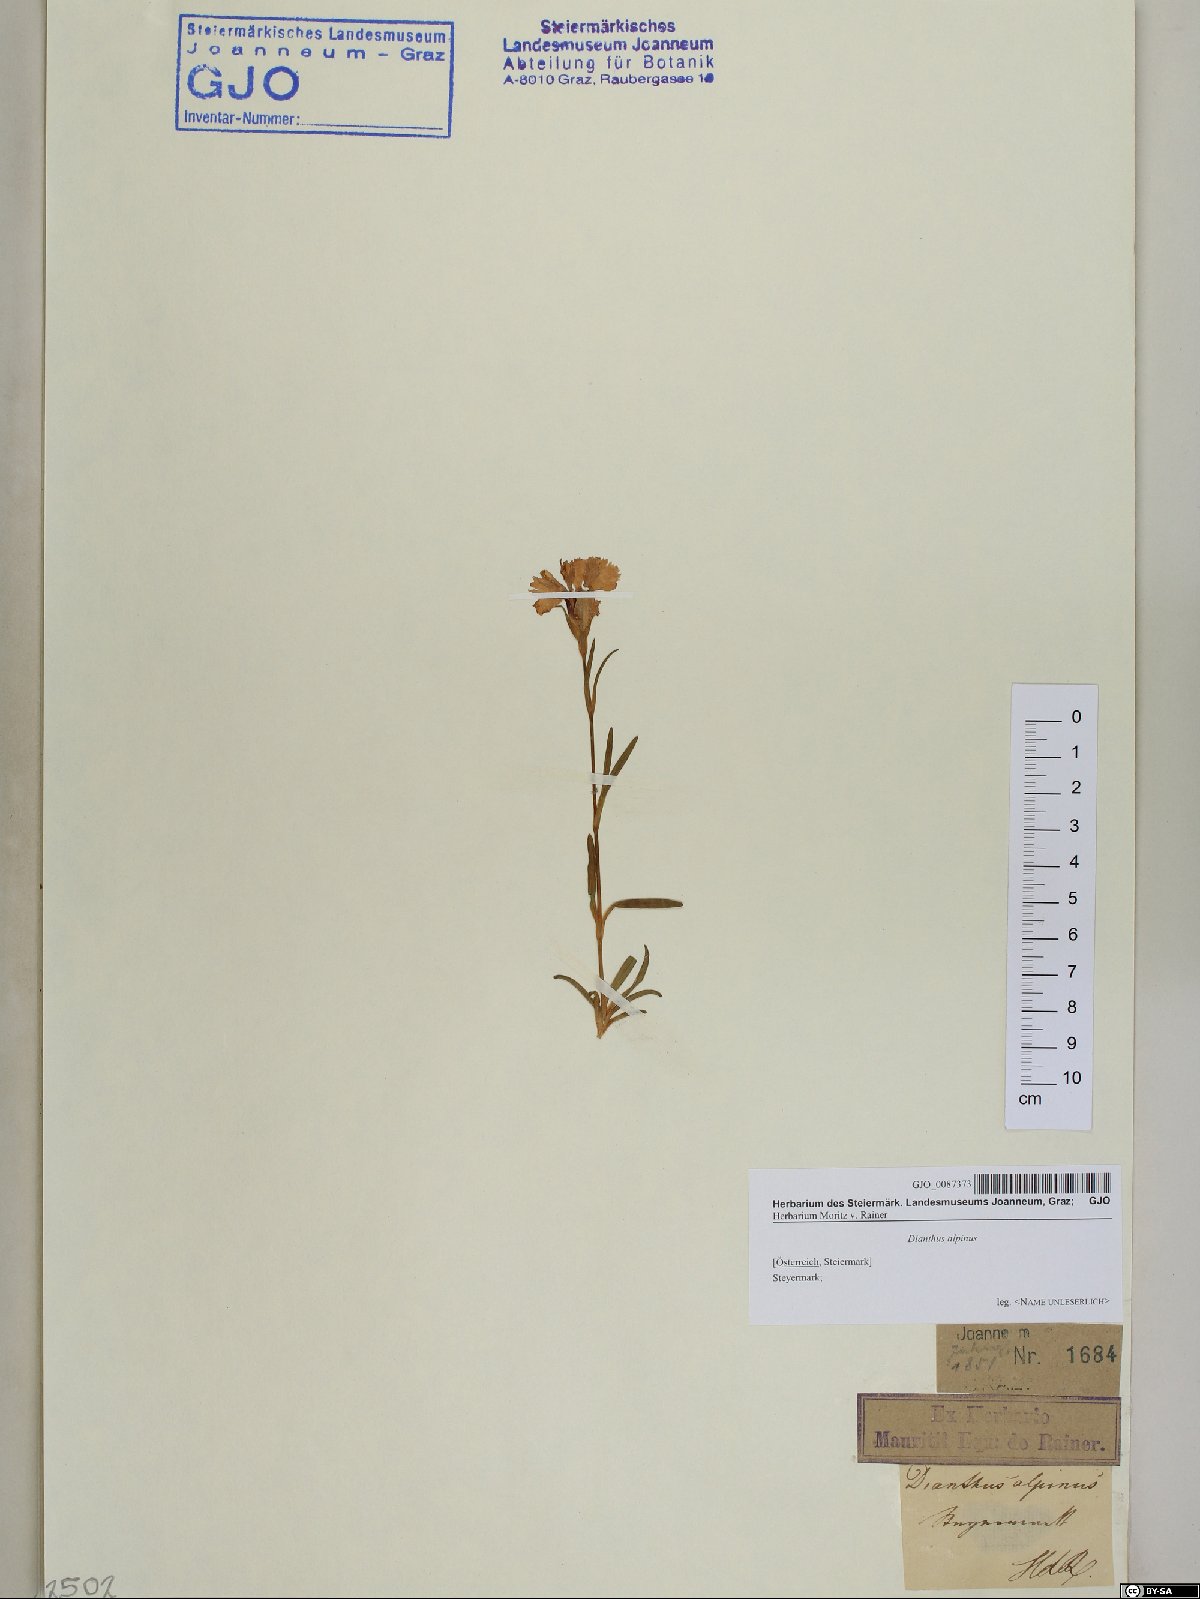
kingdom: Plantae
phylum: Tracheophyta
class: Magnoliopsida
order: Caryophyllales
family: Caryophyllaceae
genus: Dianthus
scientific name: Dianthus alpinus
